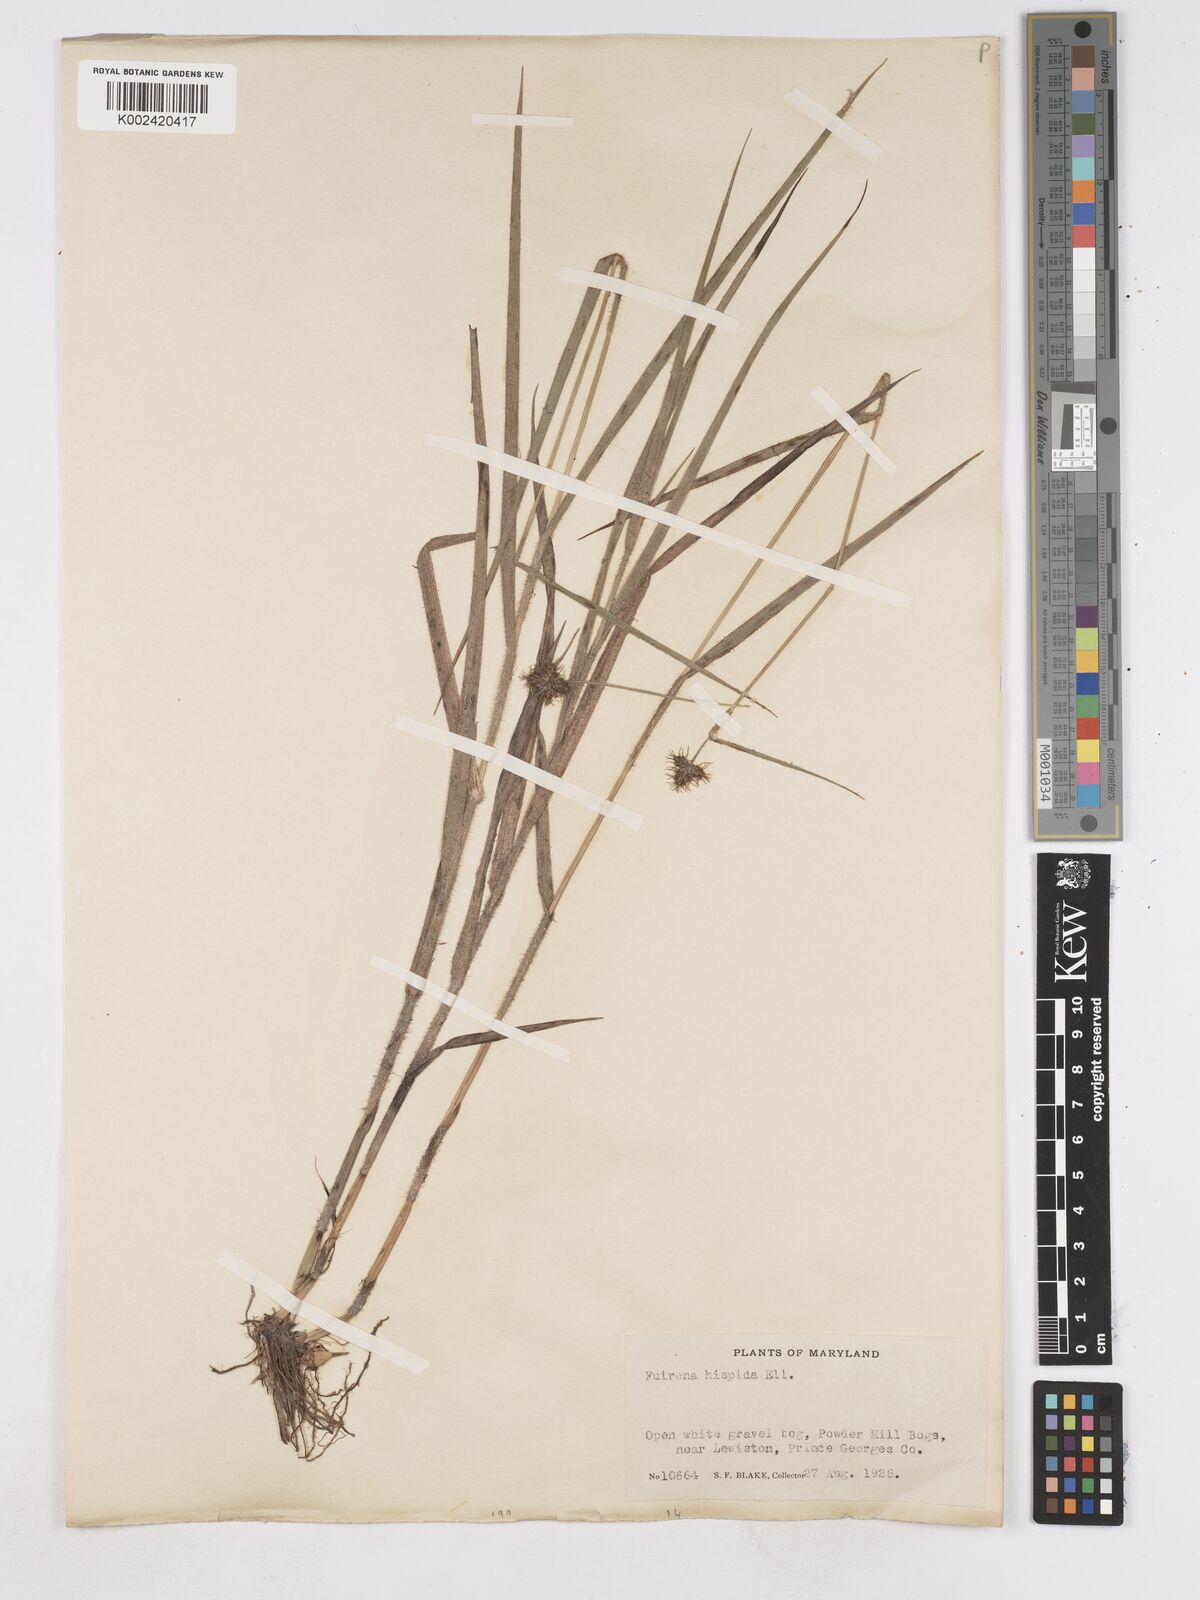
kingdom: Plantae
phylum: Tracheophyta
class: Liliopsida
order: Poales
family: Cyperaceae
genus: Fuirena
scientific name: Fuirena squarrosa
